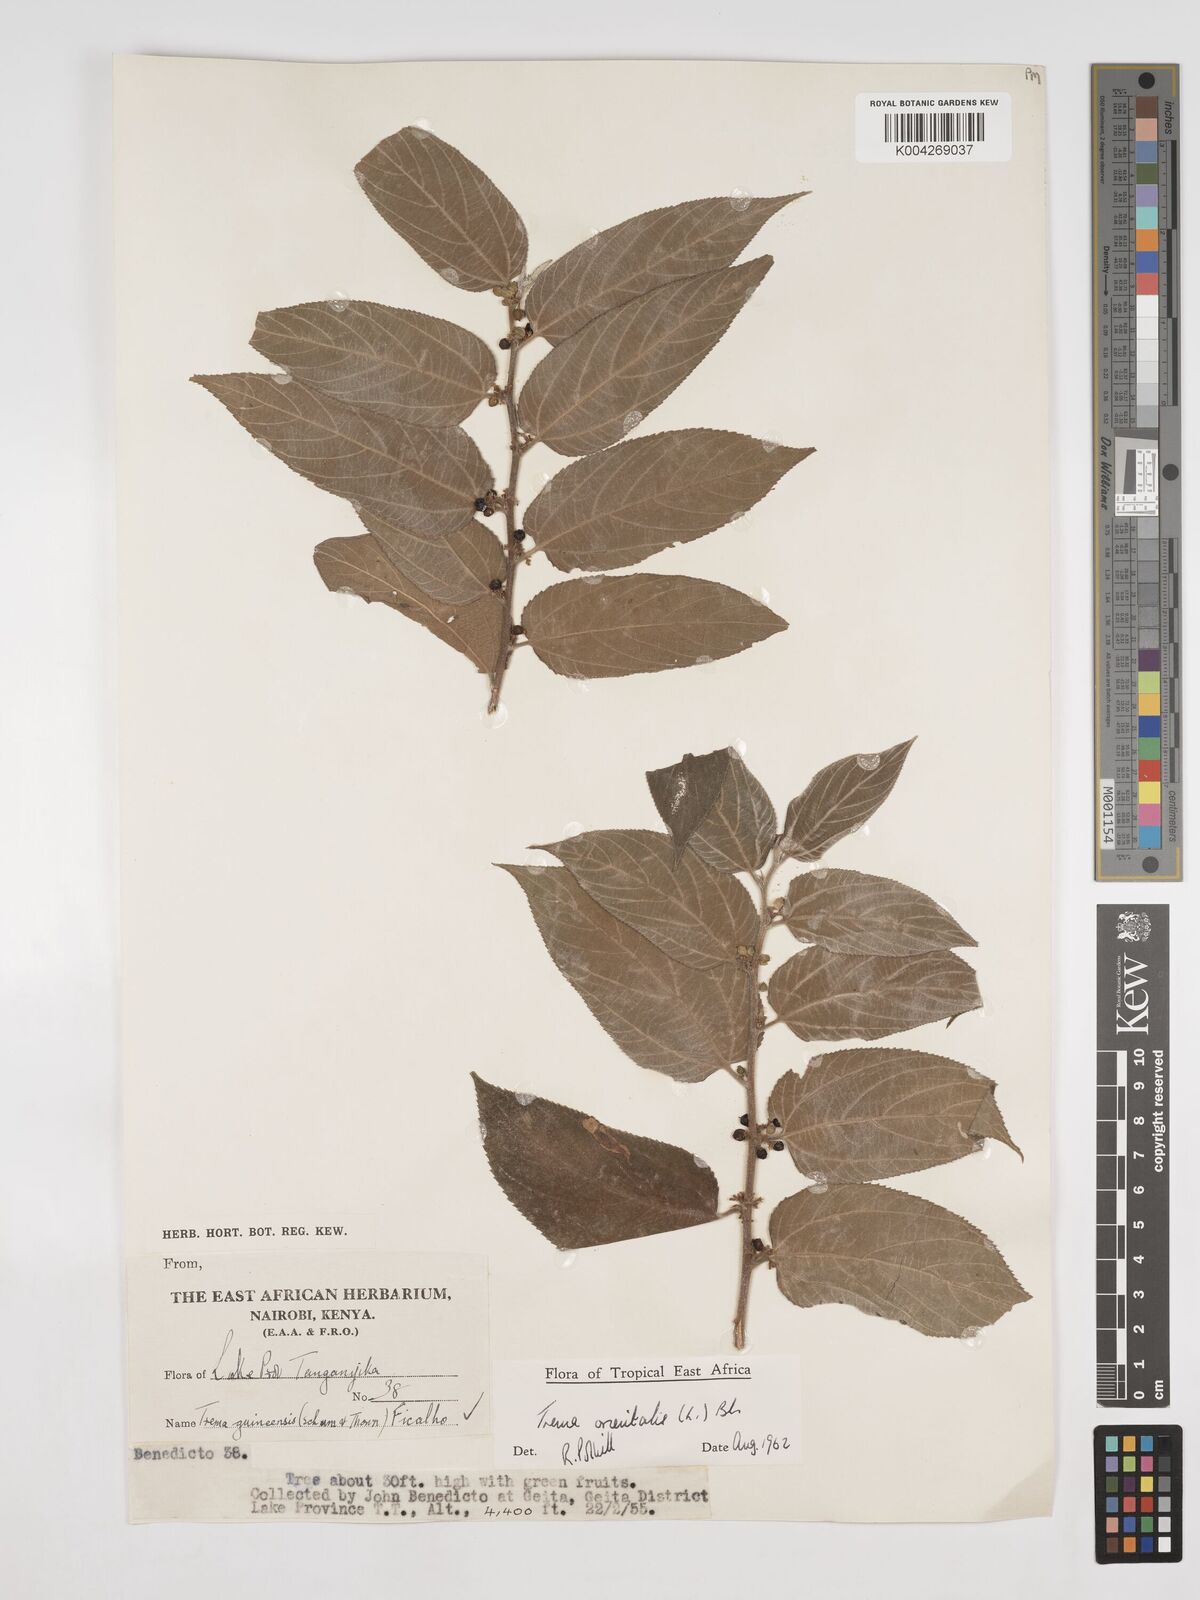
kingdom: Plantae
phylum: Tracheophyta
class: Magnoliopsida
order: Rosales
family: Cannabaceae
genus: Trema
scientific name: Trema orientale
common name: Indian charcoal tree
